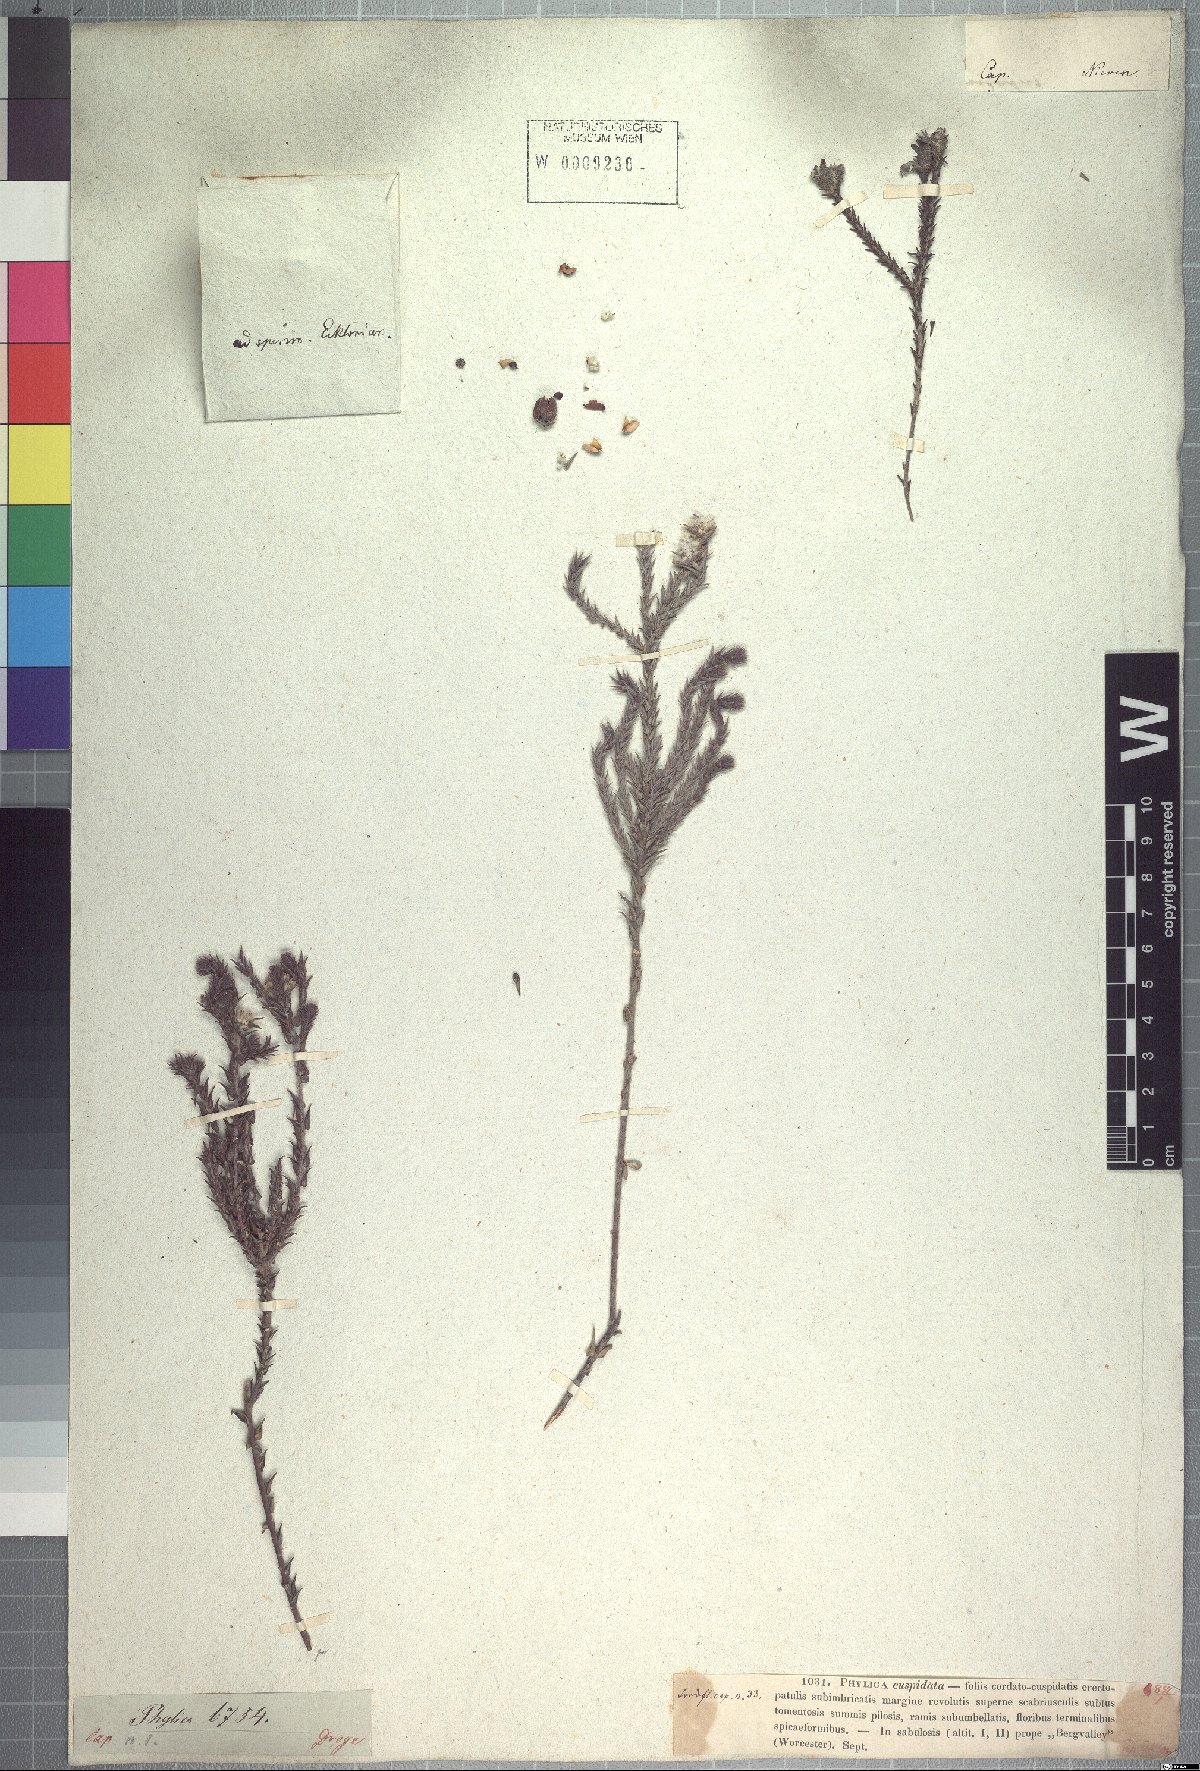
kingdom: Plantae
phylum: Tracheophyta
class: Magnoliopsida
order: Rosales
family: Rhamnaceae
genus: Phylica
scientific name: Phylica cuspidata
